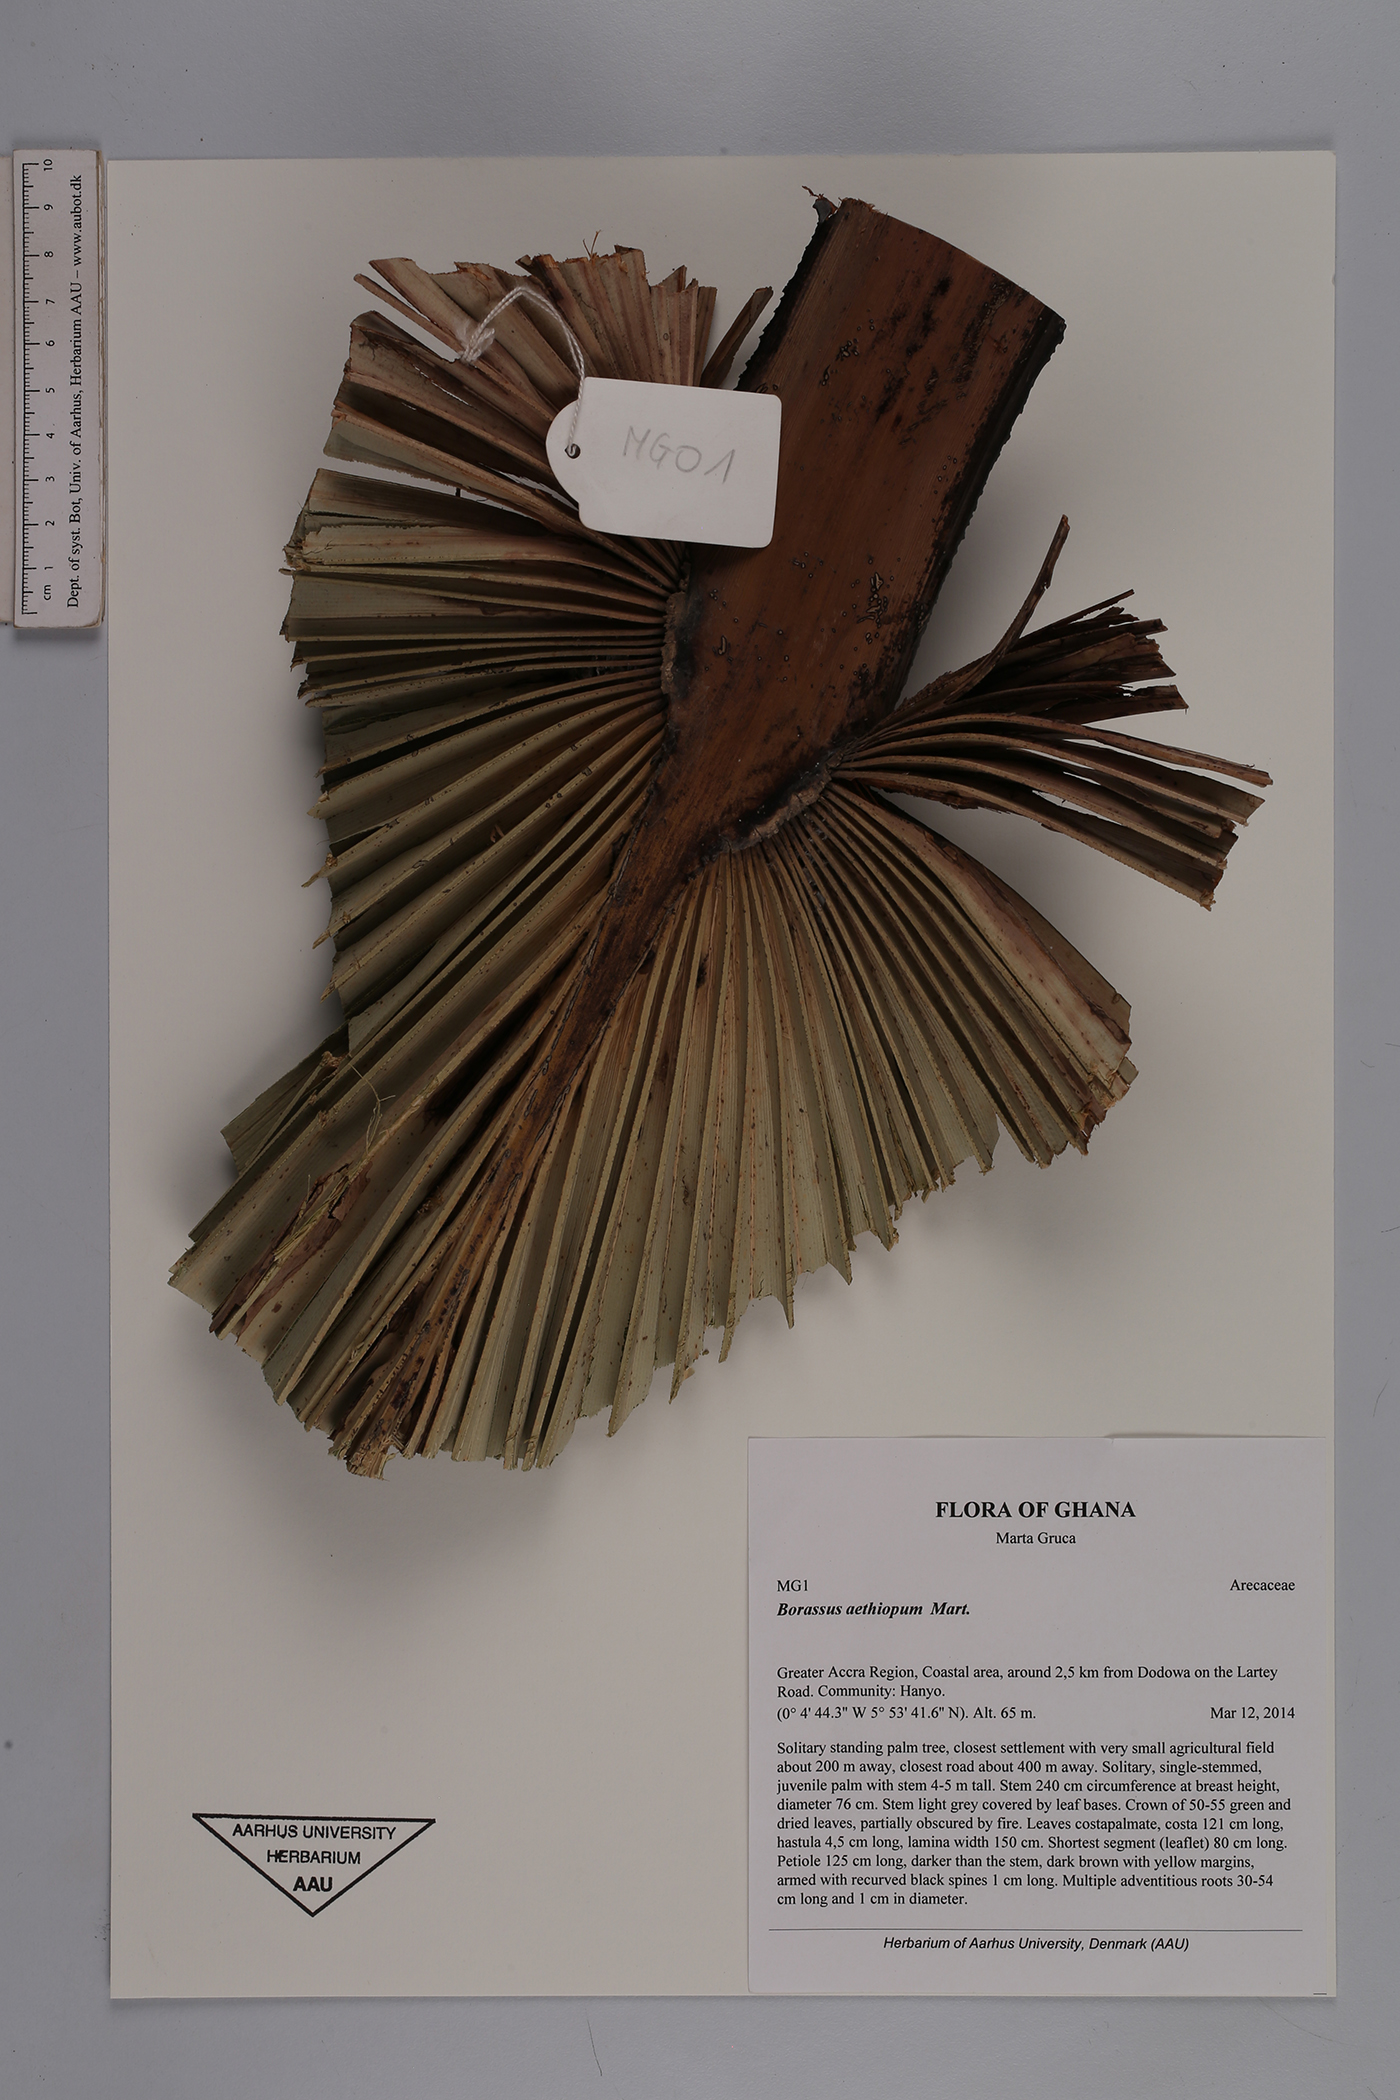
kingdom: Plantae
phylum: Tracheophyta
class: Liliopsida
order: Arecales
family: Arecaceae
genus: Borassus
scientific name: Borassus aethiopum
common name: Elephant palm
